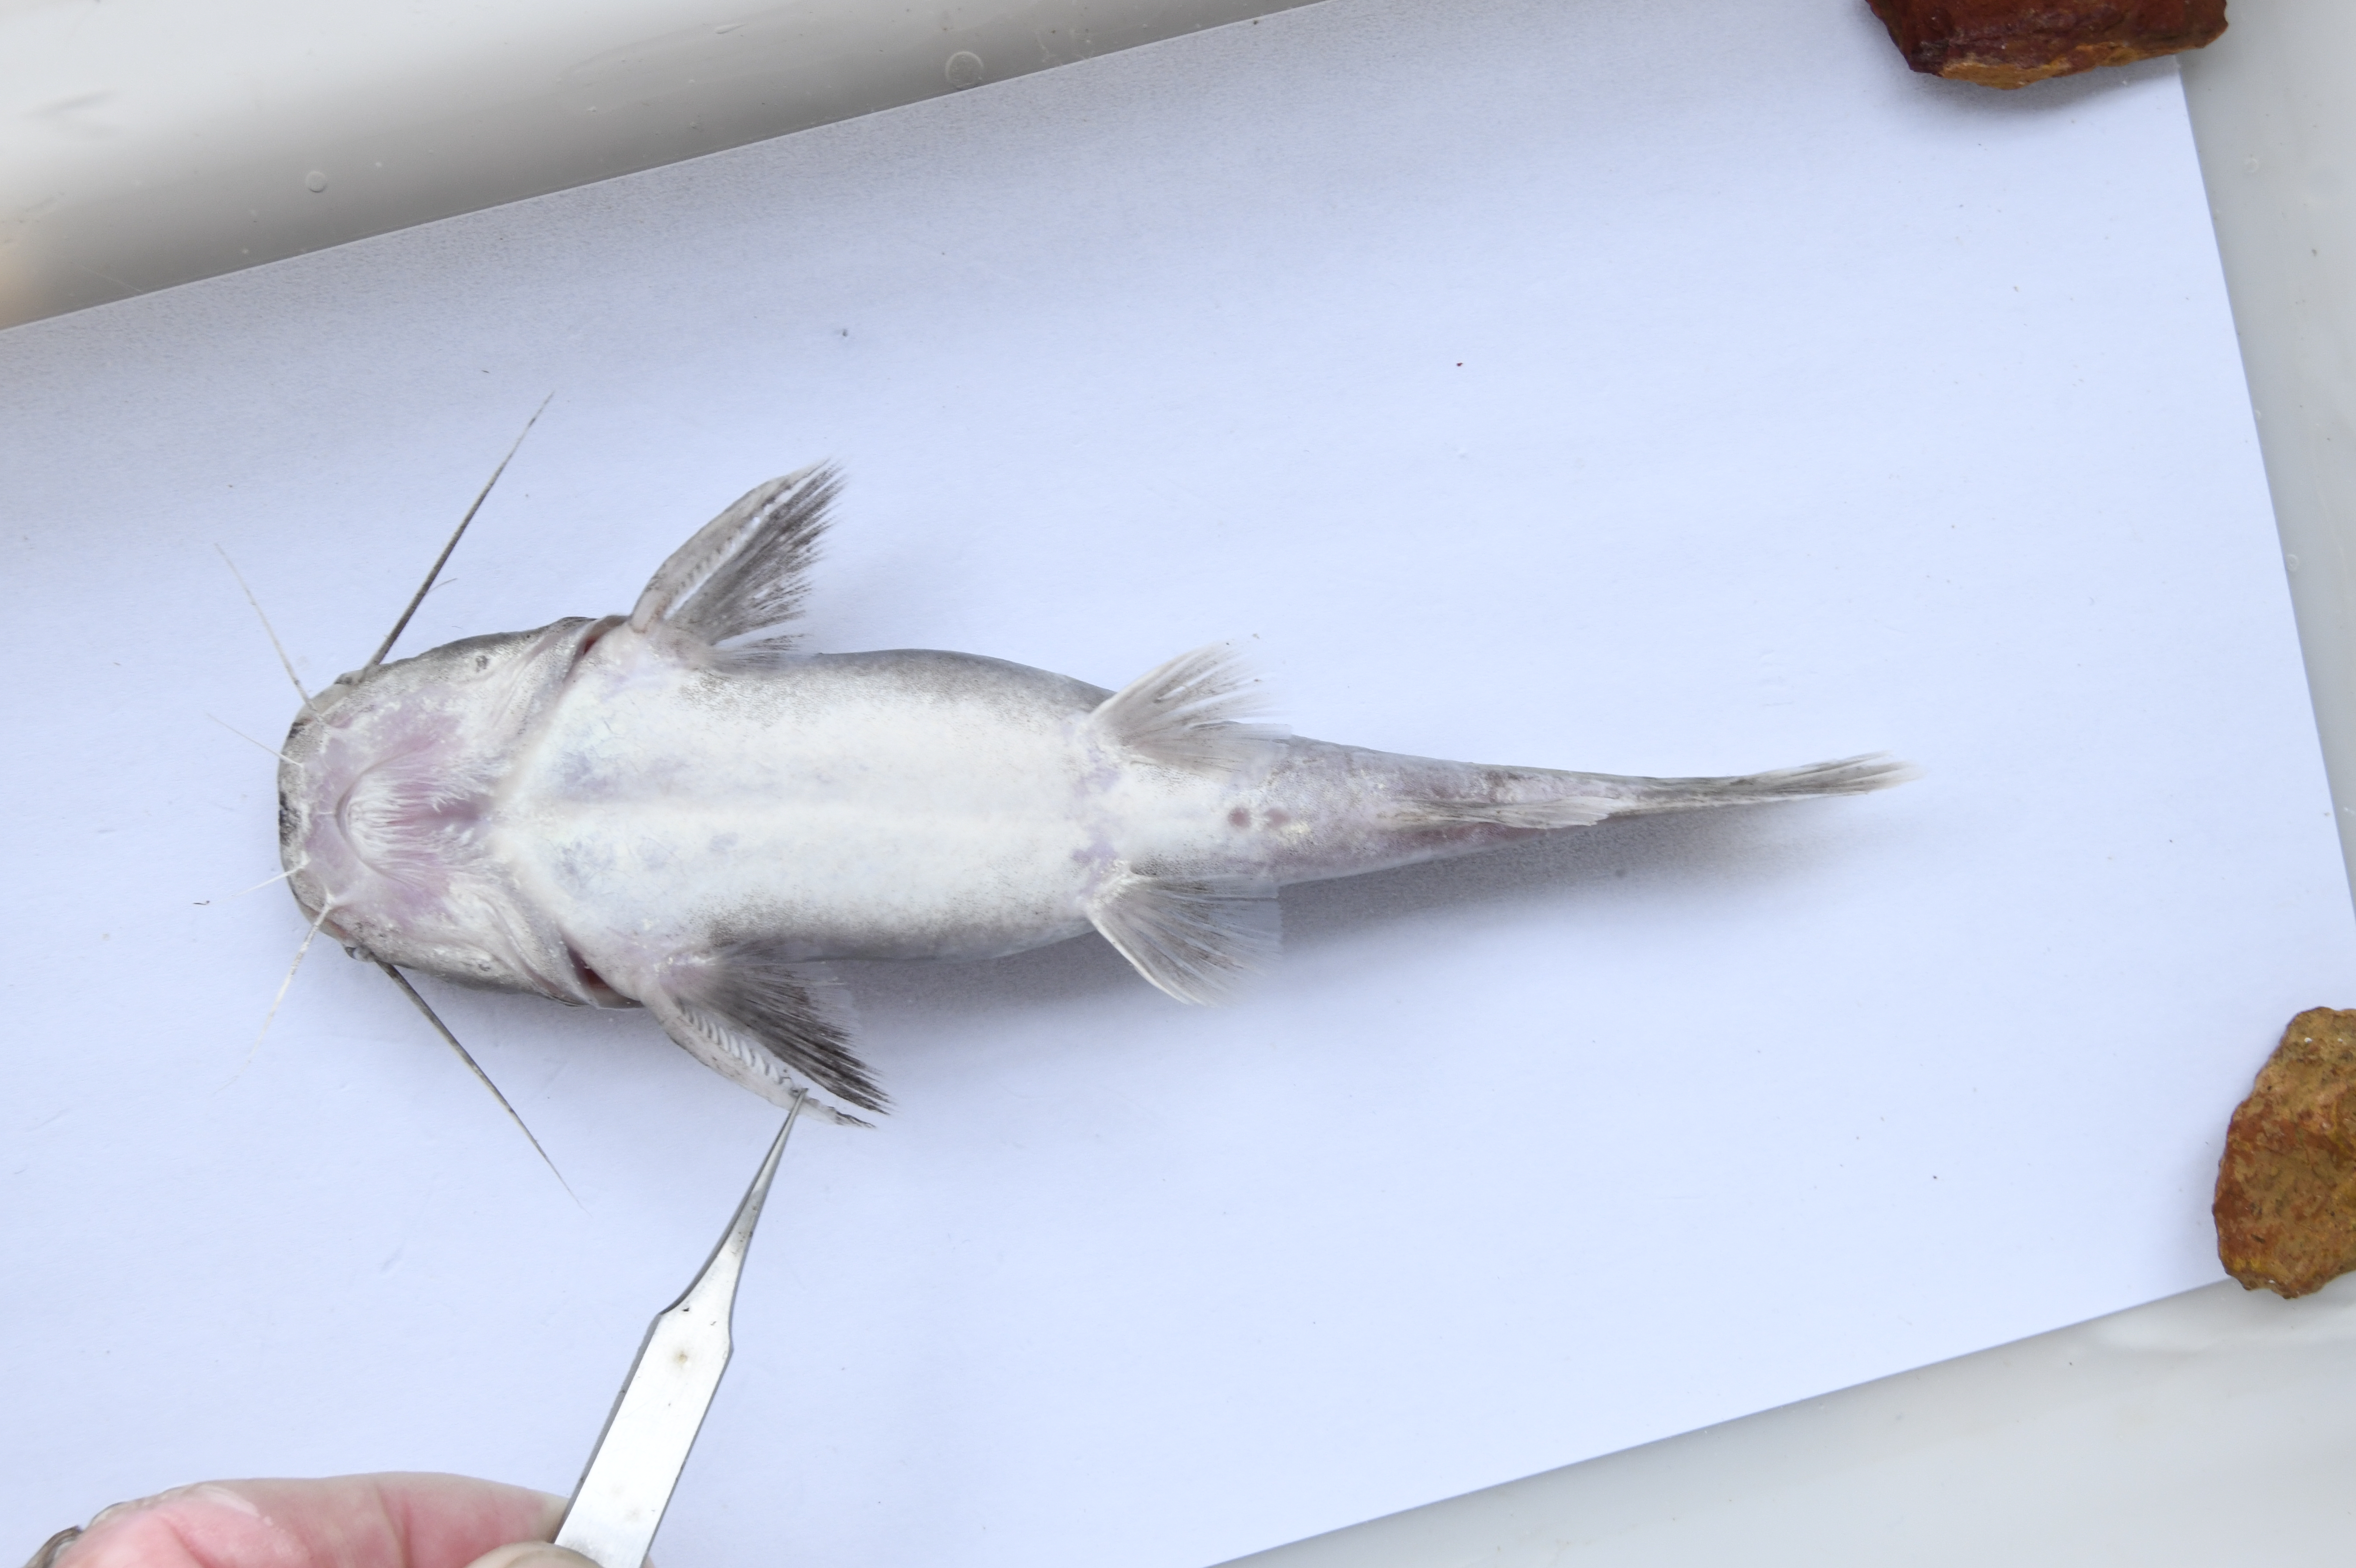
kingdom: Animalia
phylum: Chordata
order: Siluriformes
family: Claroteidae
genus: Bathybagrus
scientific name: Bathybagrus platycephalus
